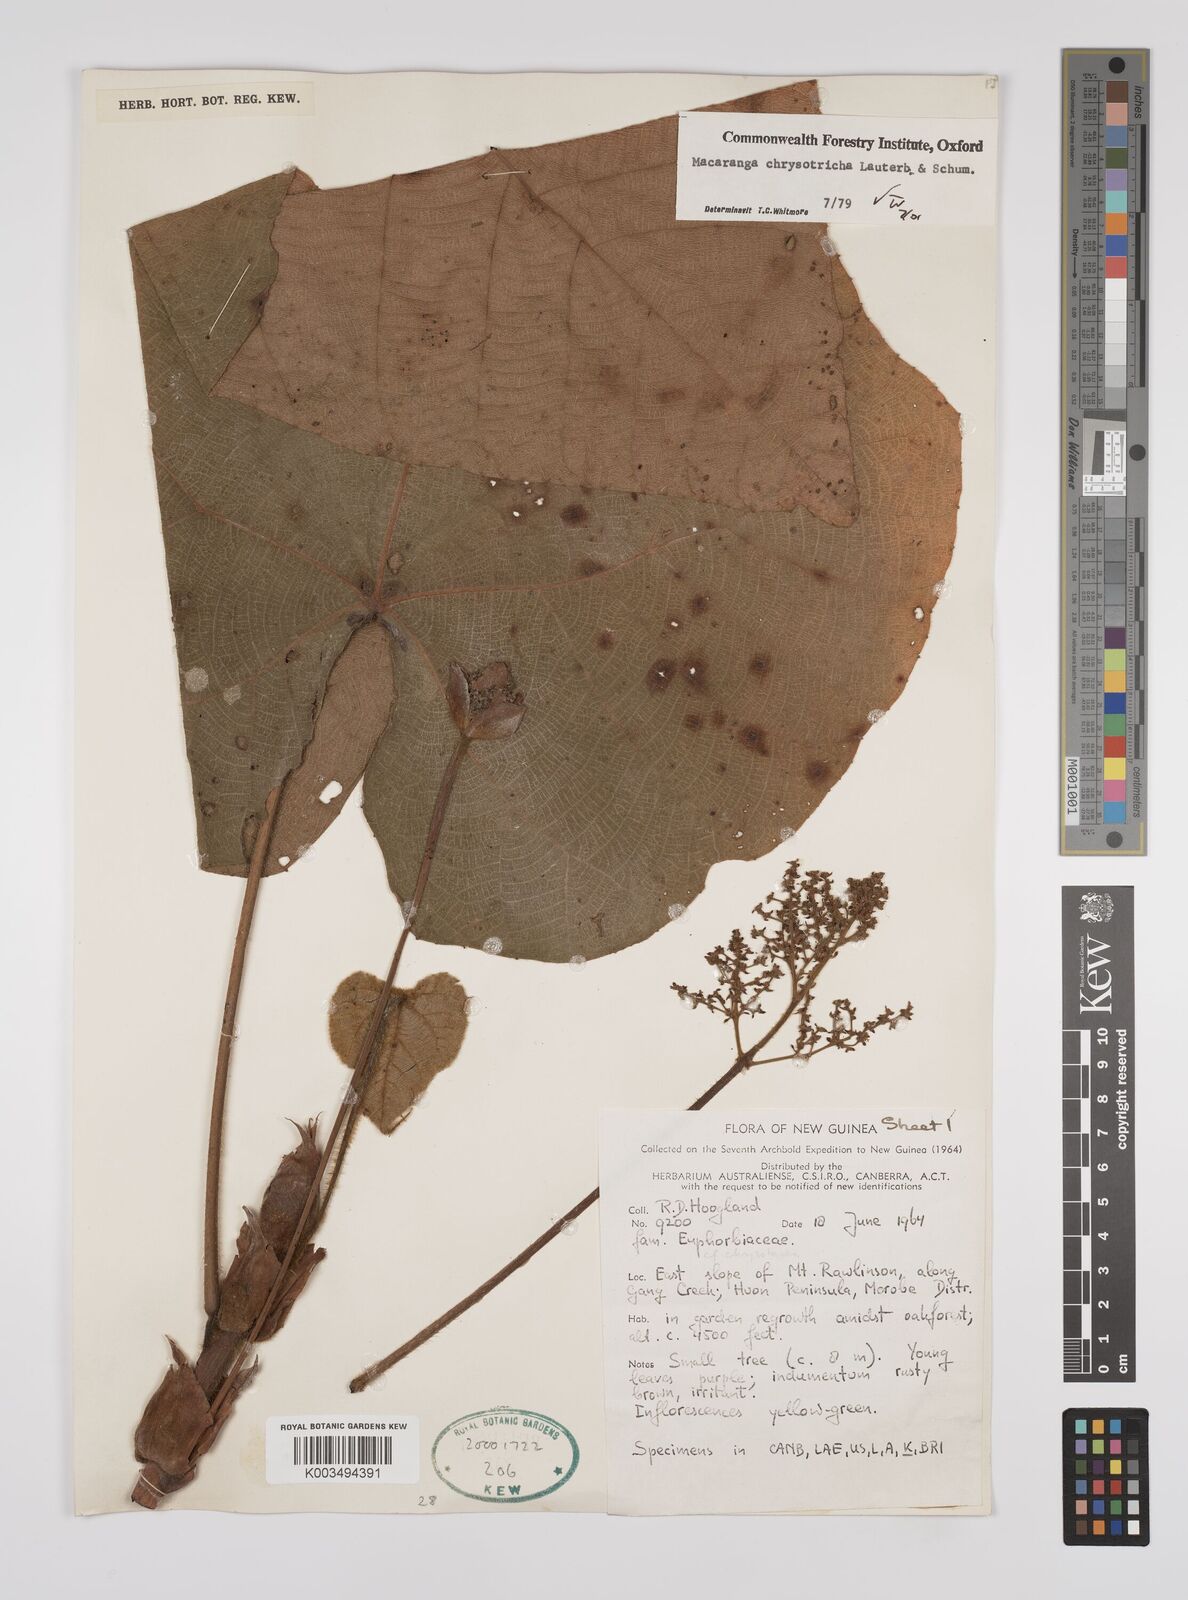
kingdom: Plantae
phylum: Tracheophyta
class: Magnoliopsida
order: Malpighiales
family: Euphorbiaceae
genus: Macaranga
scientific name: Macaranga chrysotricha
